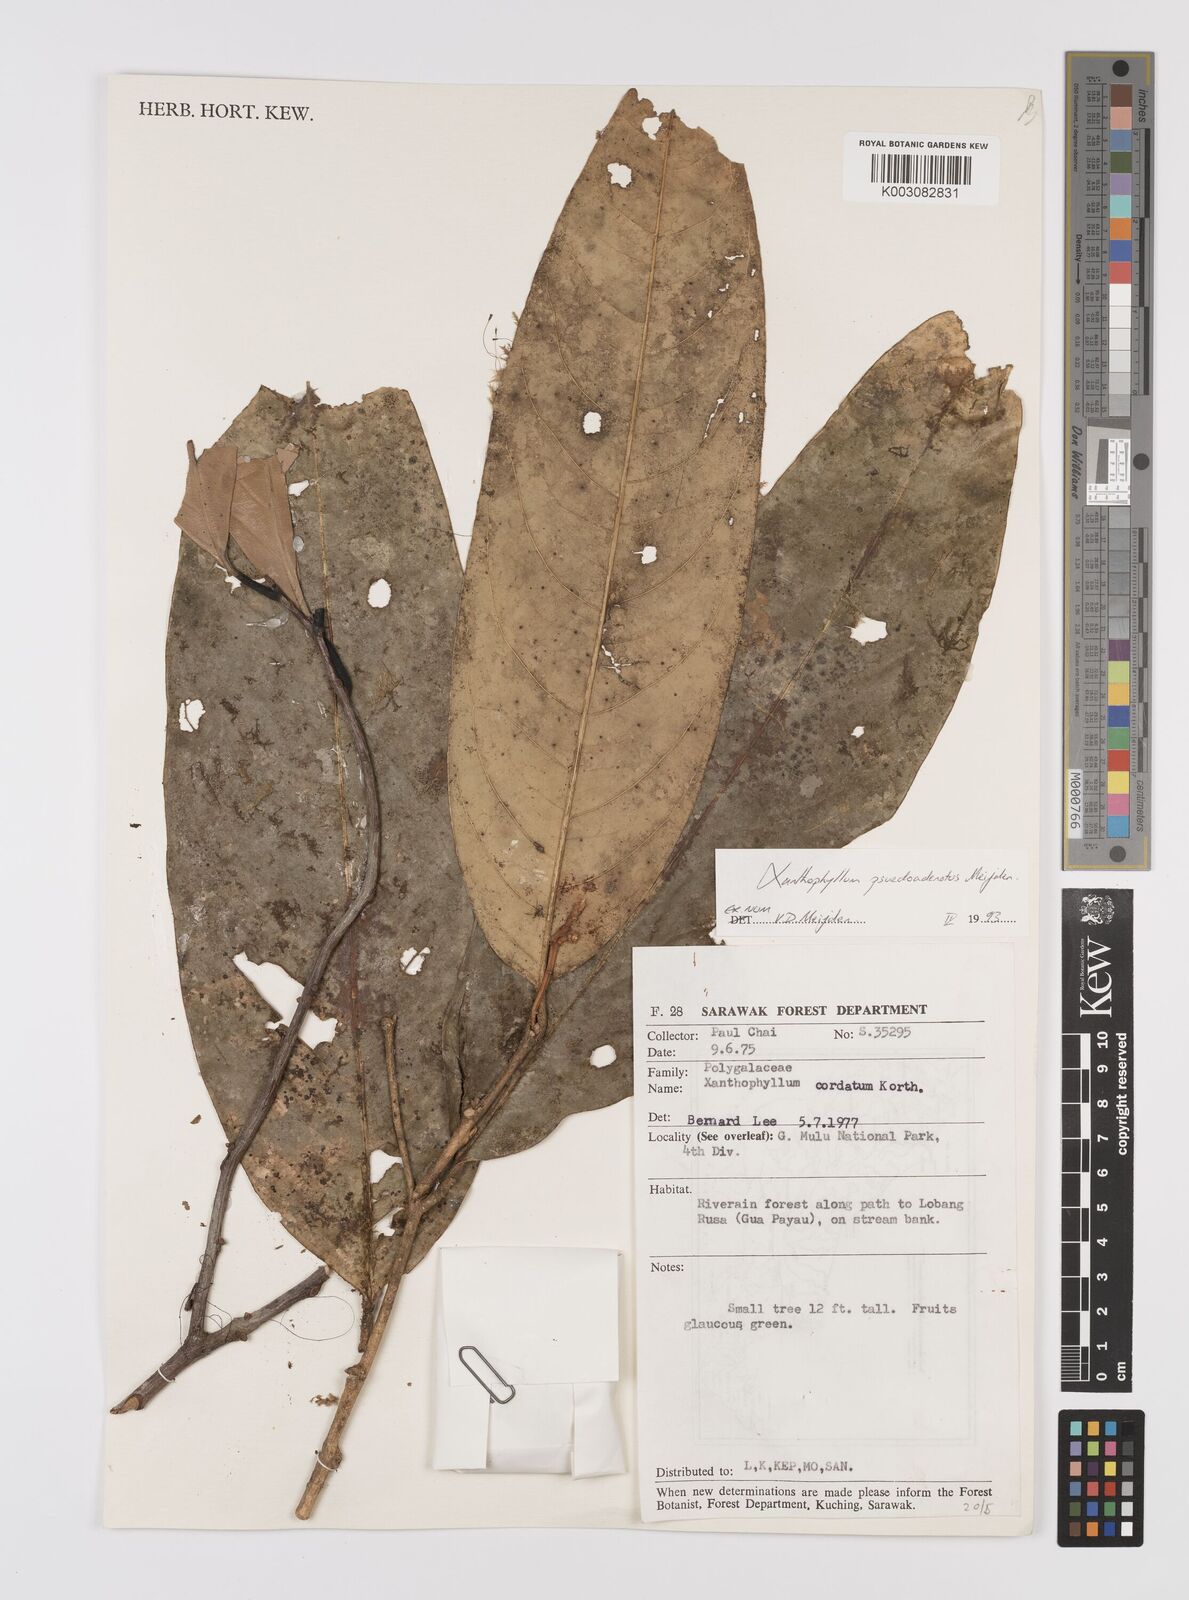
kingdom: Plantae
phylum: Tracheophyta
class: Magnoliopsida
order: Fabales
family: Polygalaceae
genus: Xanthophyllum
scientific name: Xanthophyllum pseudoadenotus
